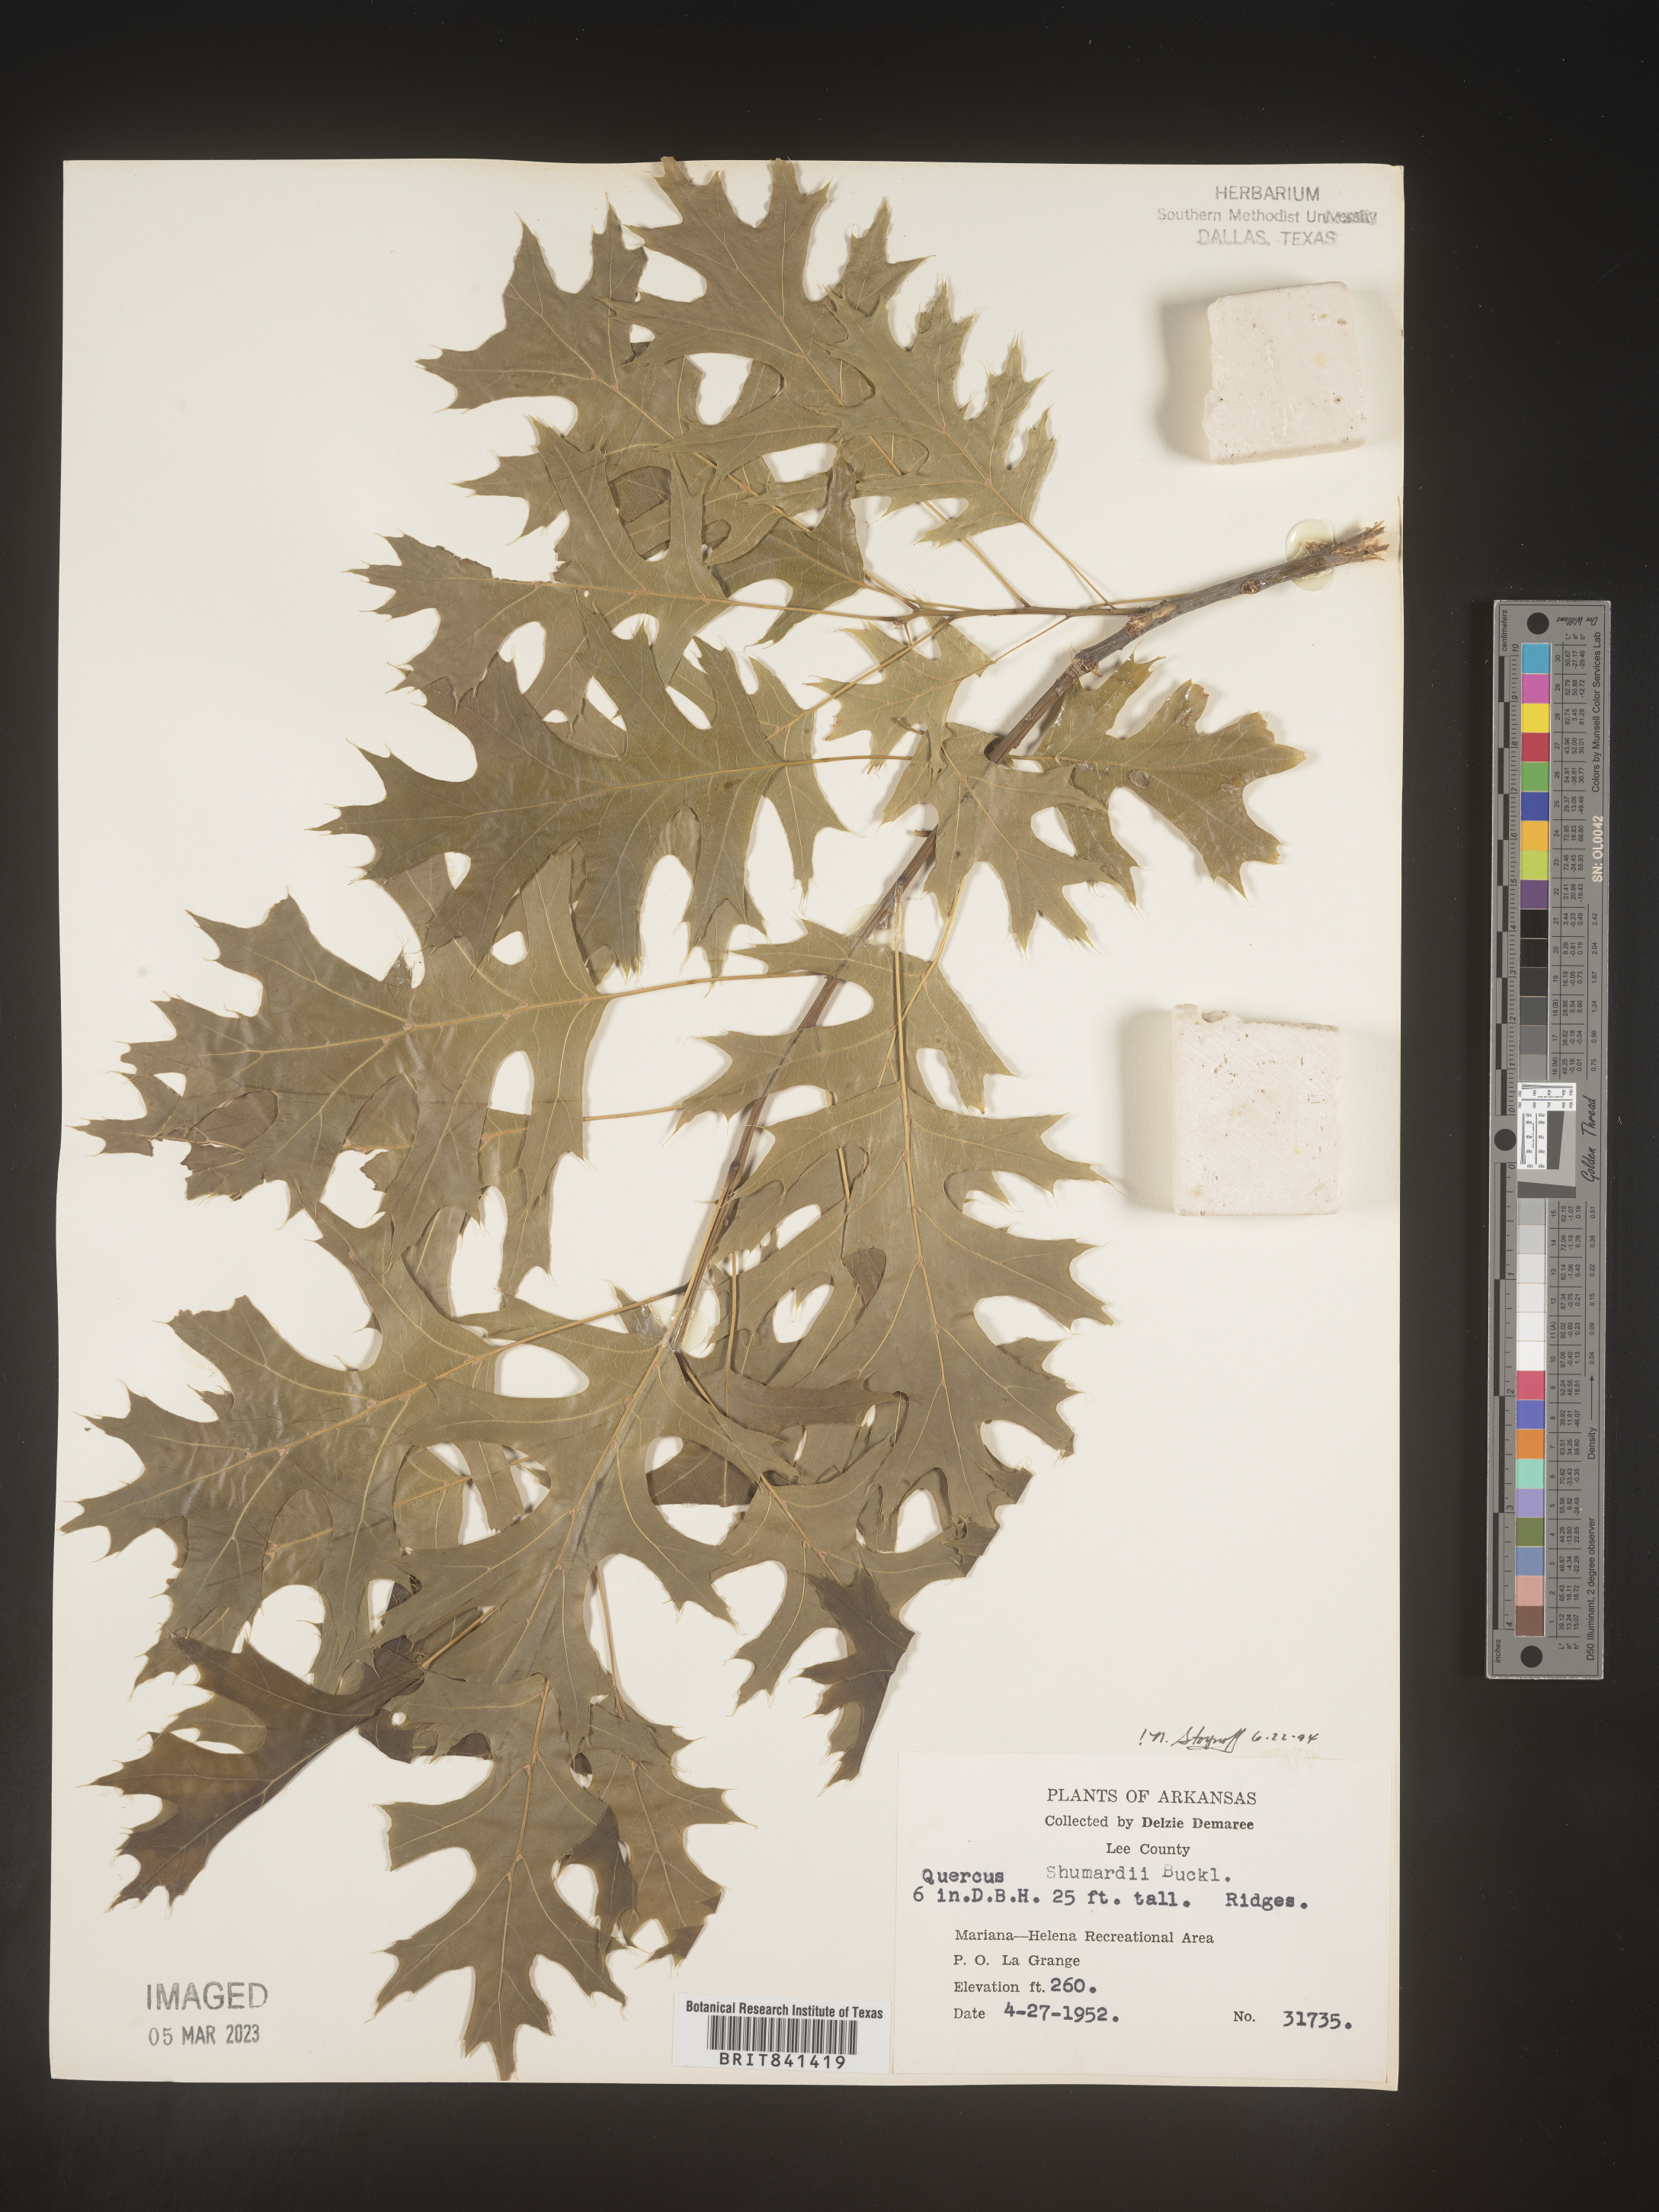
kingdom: Plantae
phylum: Tracheophyta
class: Magnoliopsida
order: Fagales
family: Fagaceae
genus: Quercus
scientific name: Quercus shumardii
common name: Shumard oak
